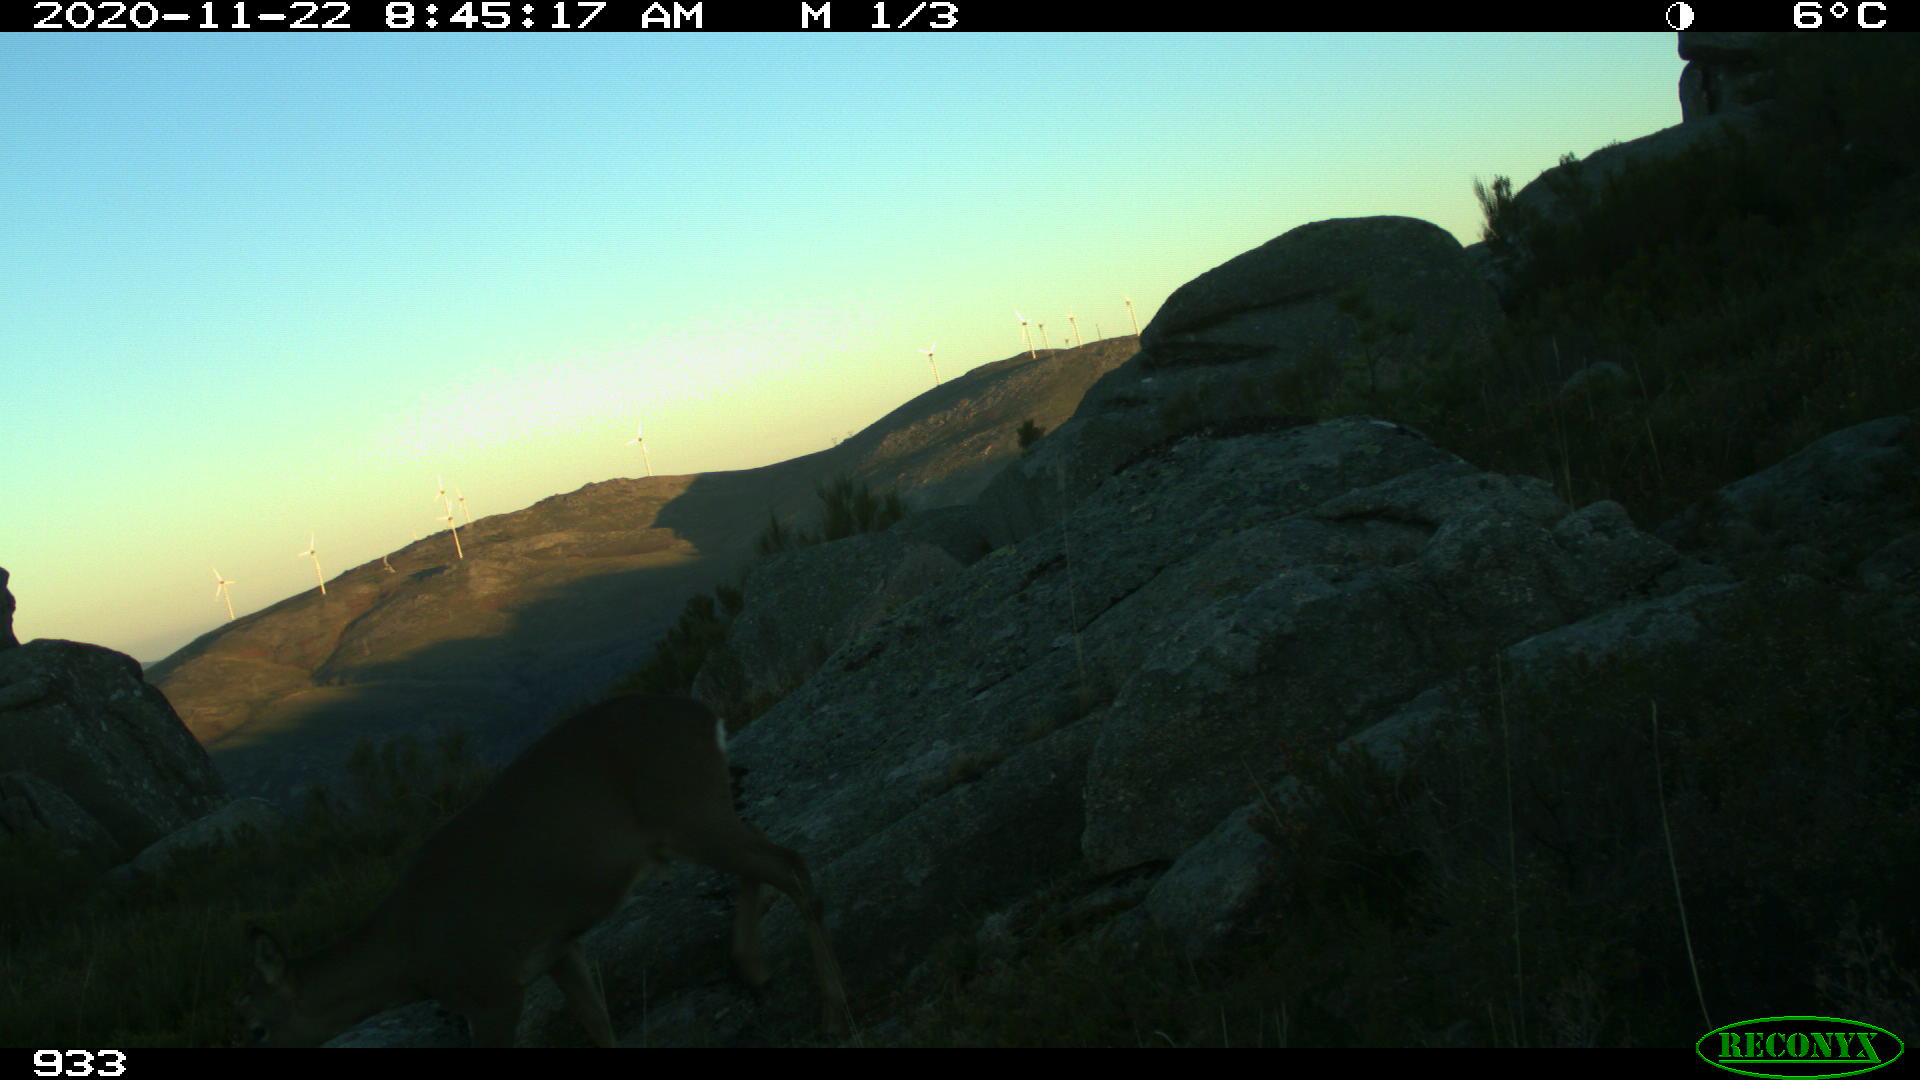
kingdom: Animalia
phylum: Chordata
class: Mammalia
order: Artiodactyla
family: Cervidae
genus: Capreolus
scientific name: Capreolus capreolus
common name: Western roe deer
